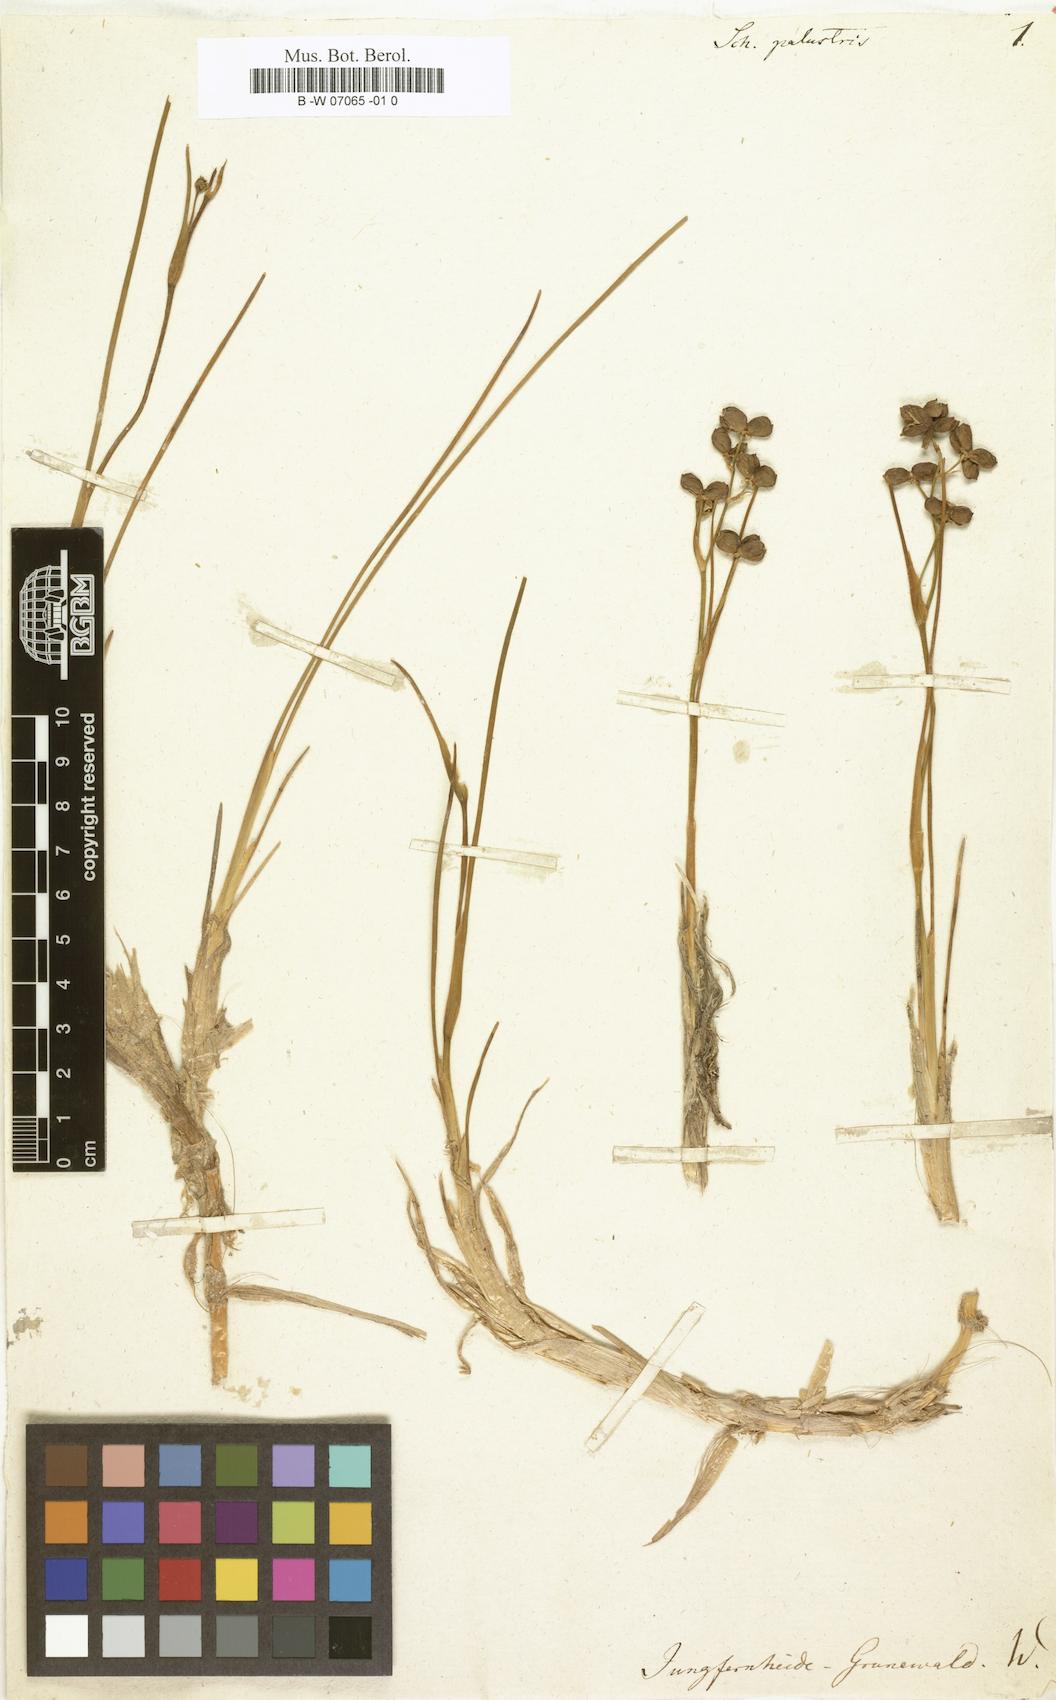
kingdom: Plantae
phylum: Tracheophyta
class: Liliopsida
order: Alismatales
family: Scheuchzeriaceae
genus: Scheuchzeria
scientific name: Scheuchzeria palustris
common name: Rannoch-rush
